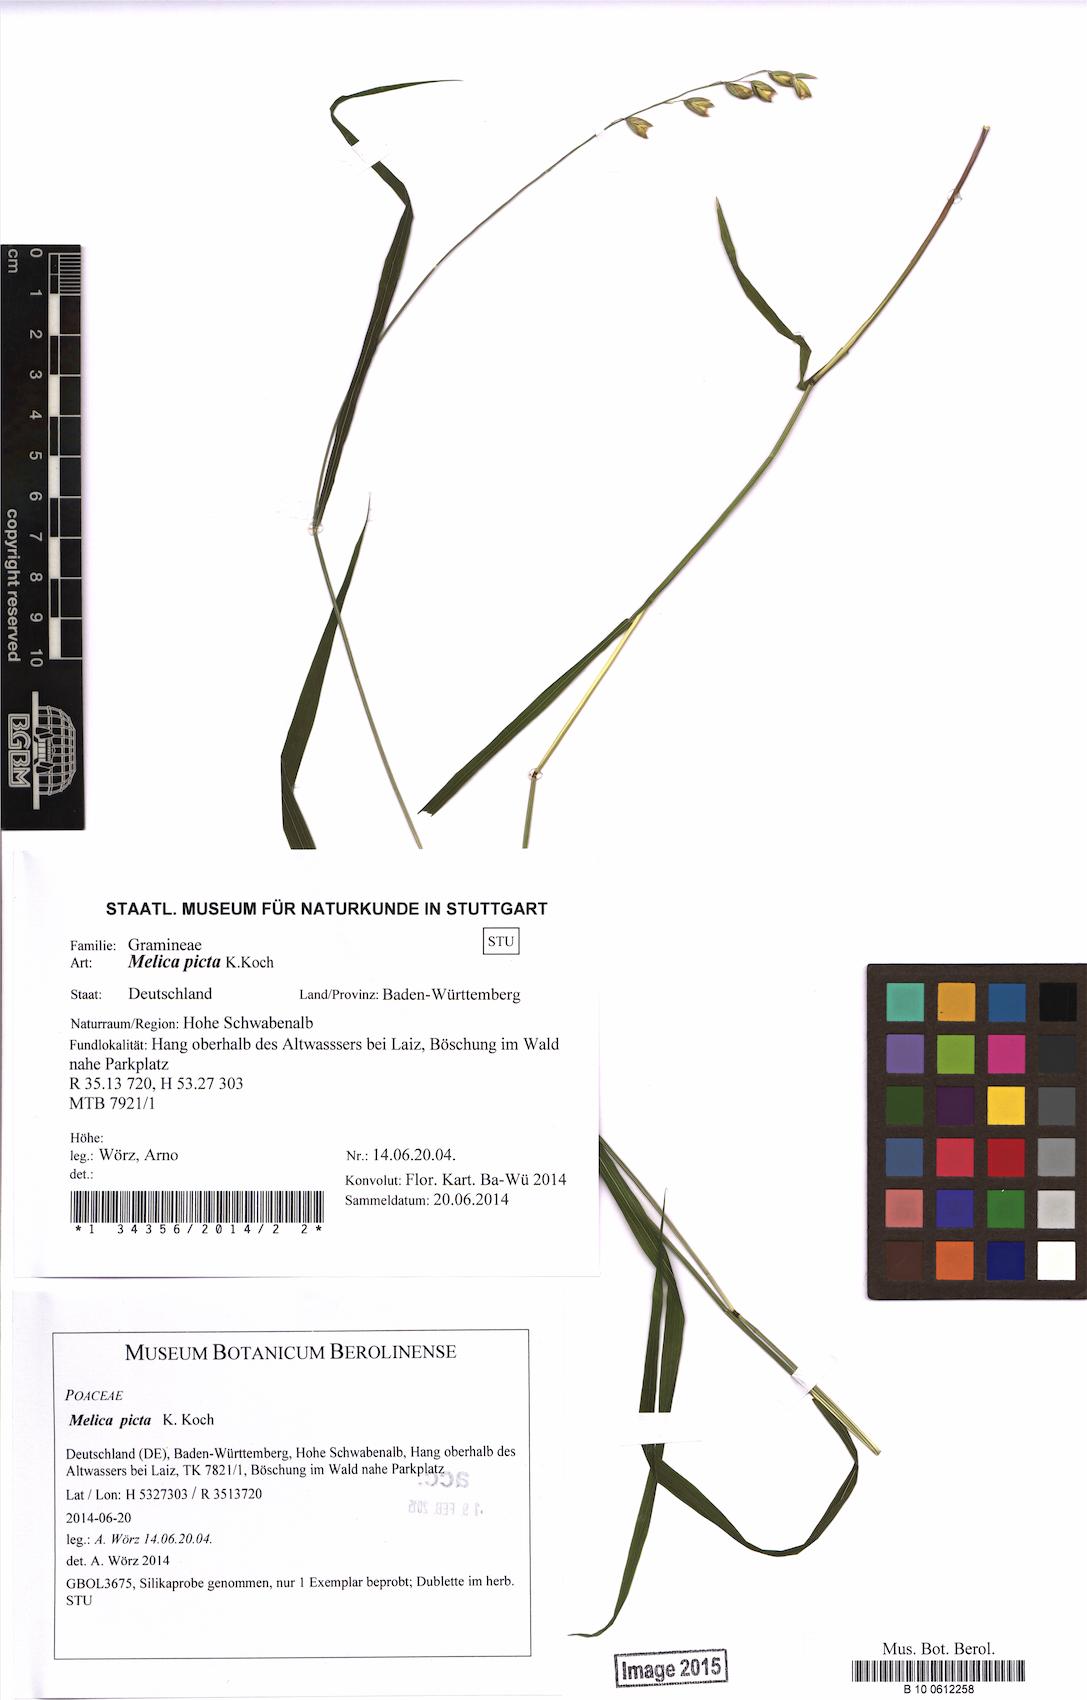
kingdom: Plantae
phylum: Tracheophyta
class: Liliopsida
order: Poales
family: Poaceae
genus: Melica
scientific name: Melica picta
